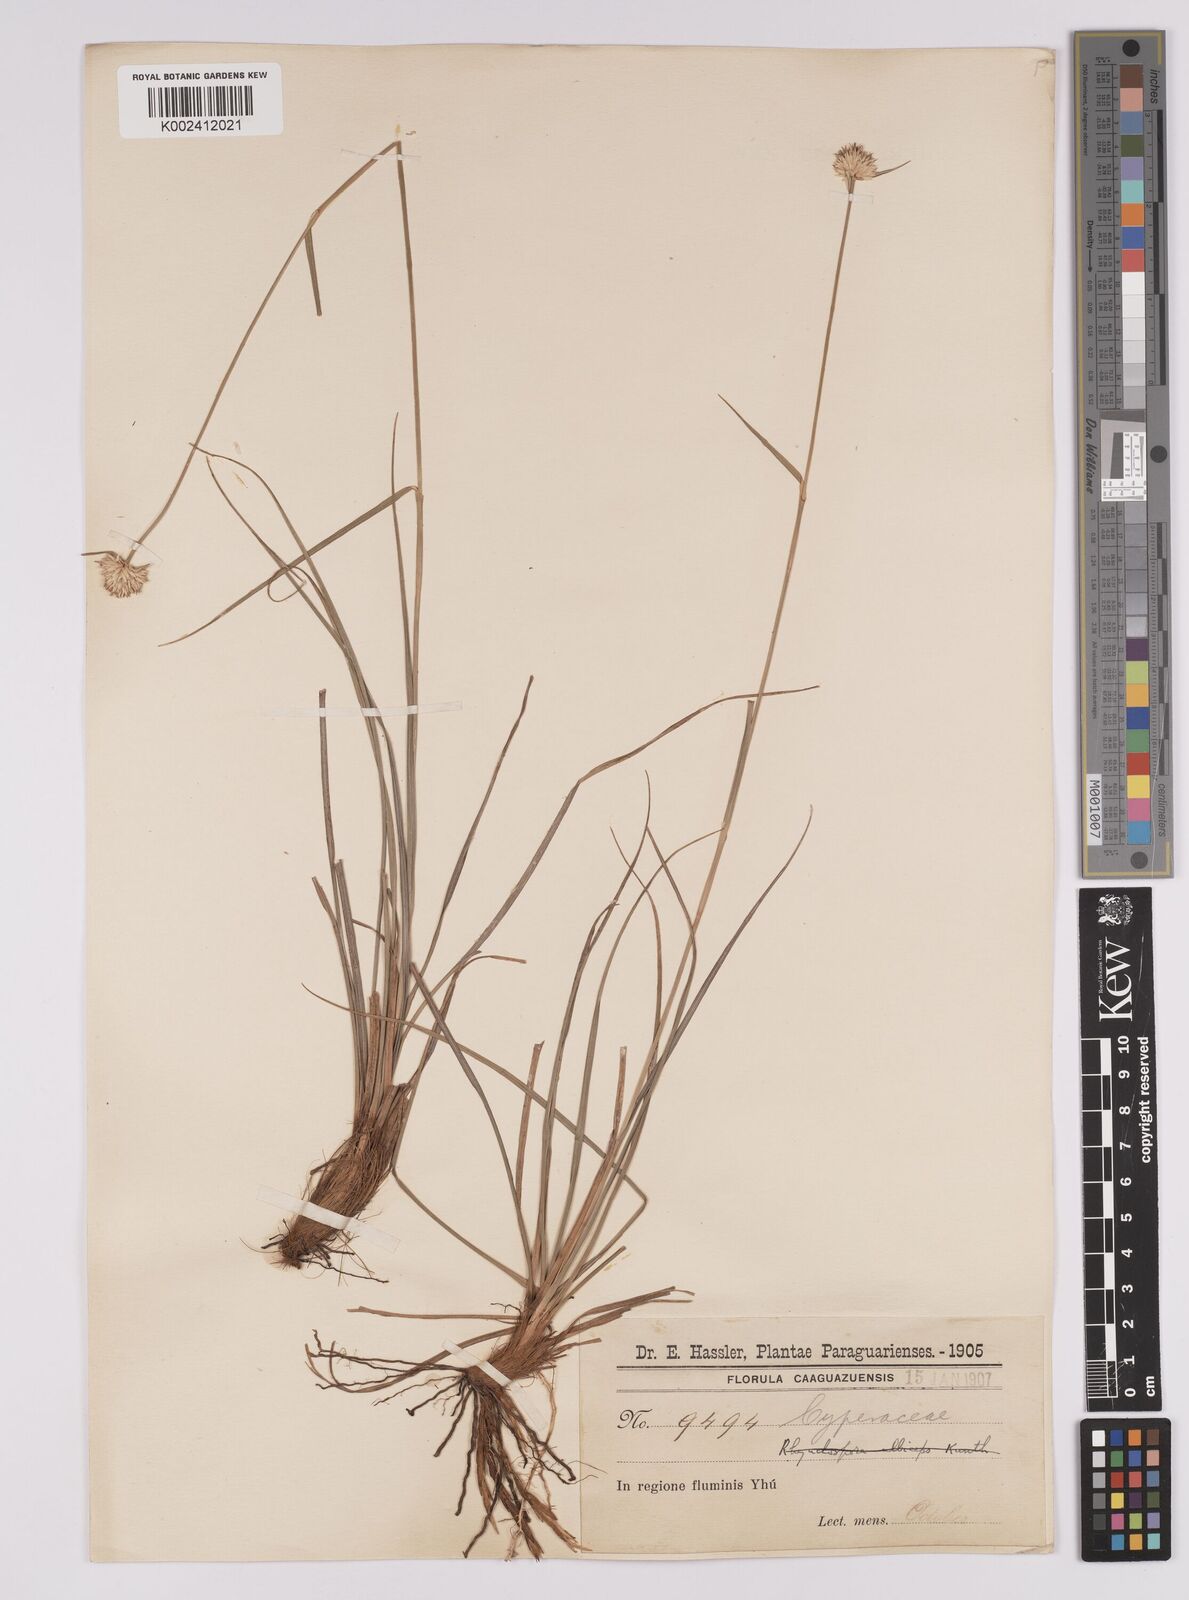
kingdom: Plantae
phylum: Tracheophyta
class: Liliopsida
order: Poales
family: Cyperaceae
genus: Rhynchospora
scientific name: Rhynchospora setigera
